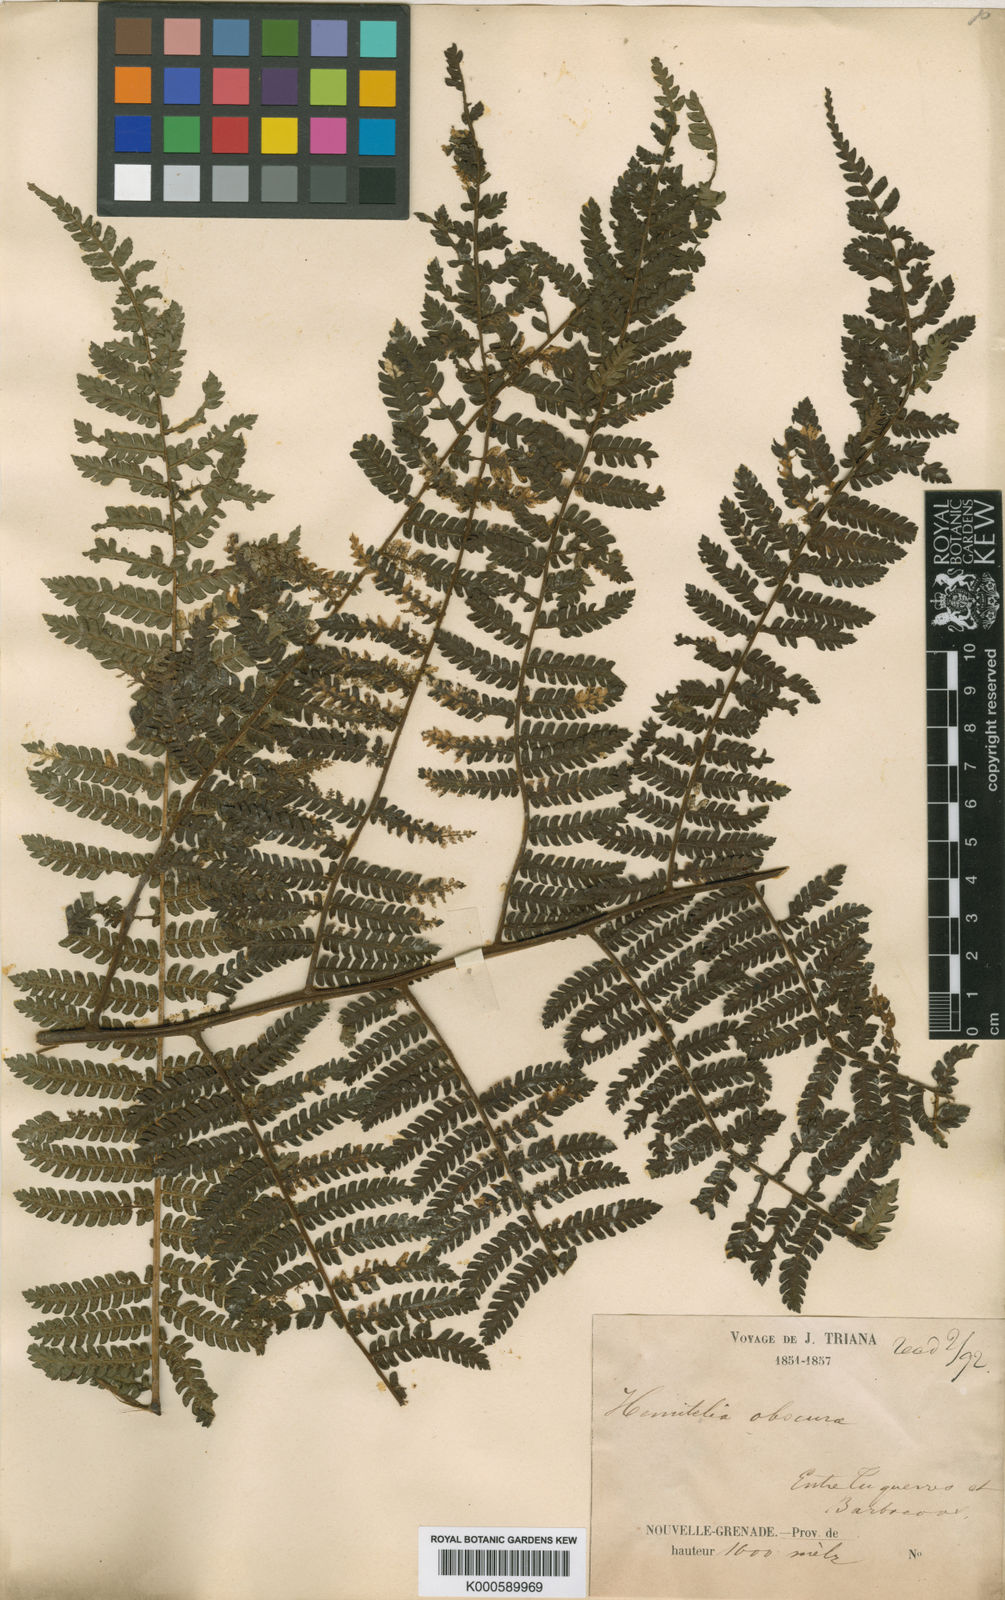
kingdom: Plantae
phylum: Tracheophyta
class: Polypodiopsida
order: Cyatheales
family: Cyatheaceae
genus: Cyathea
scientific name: Cyathea multiflora
